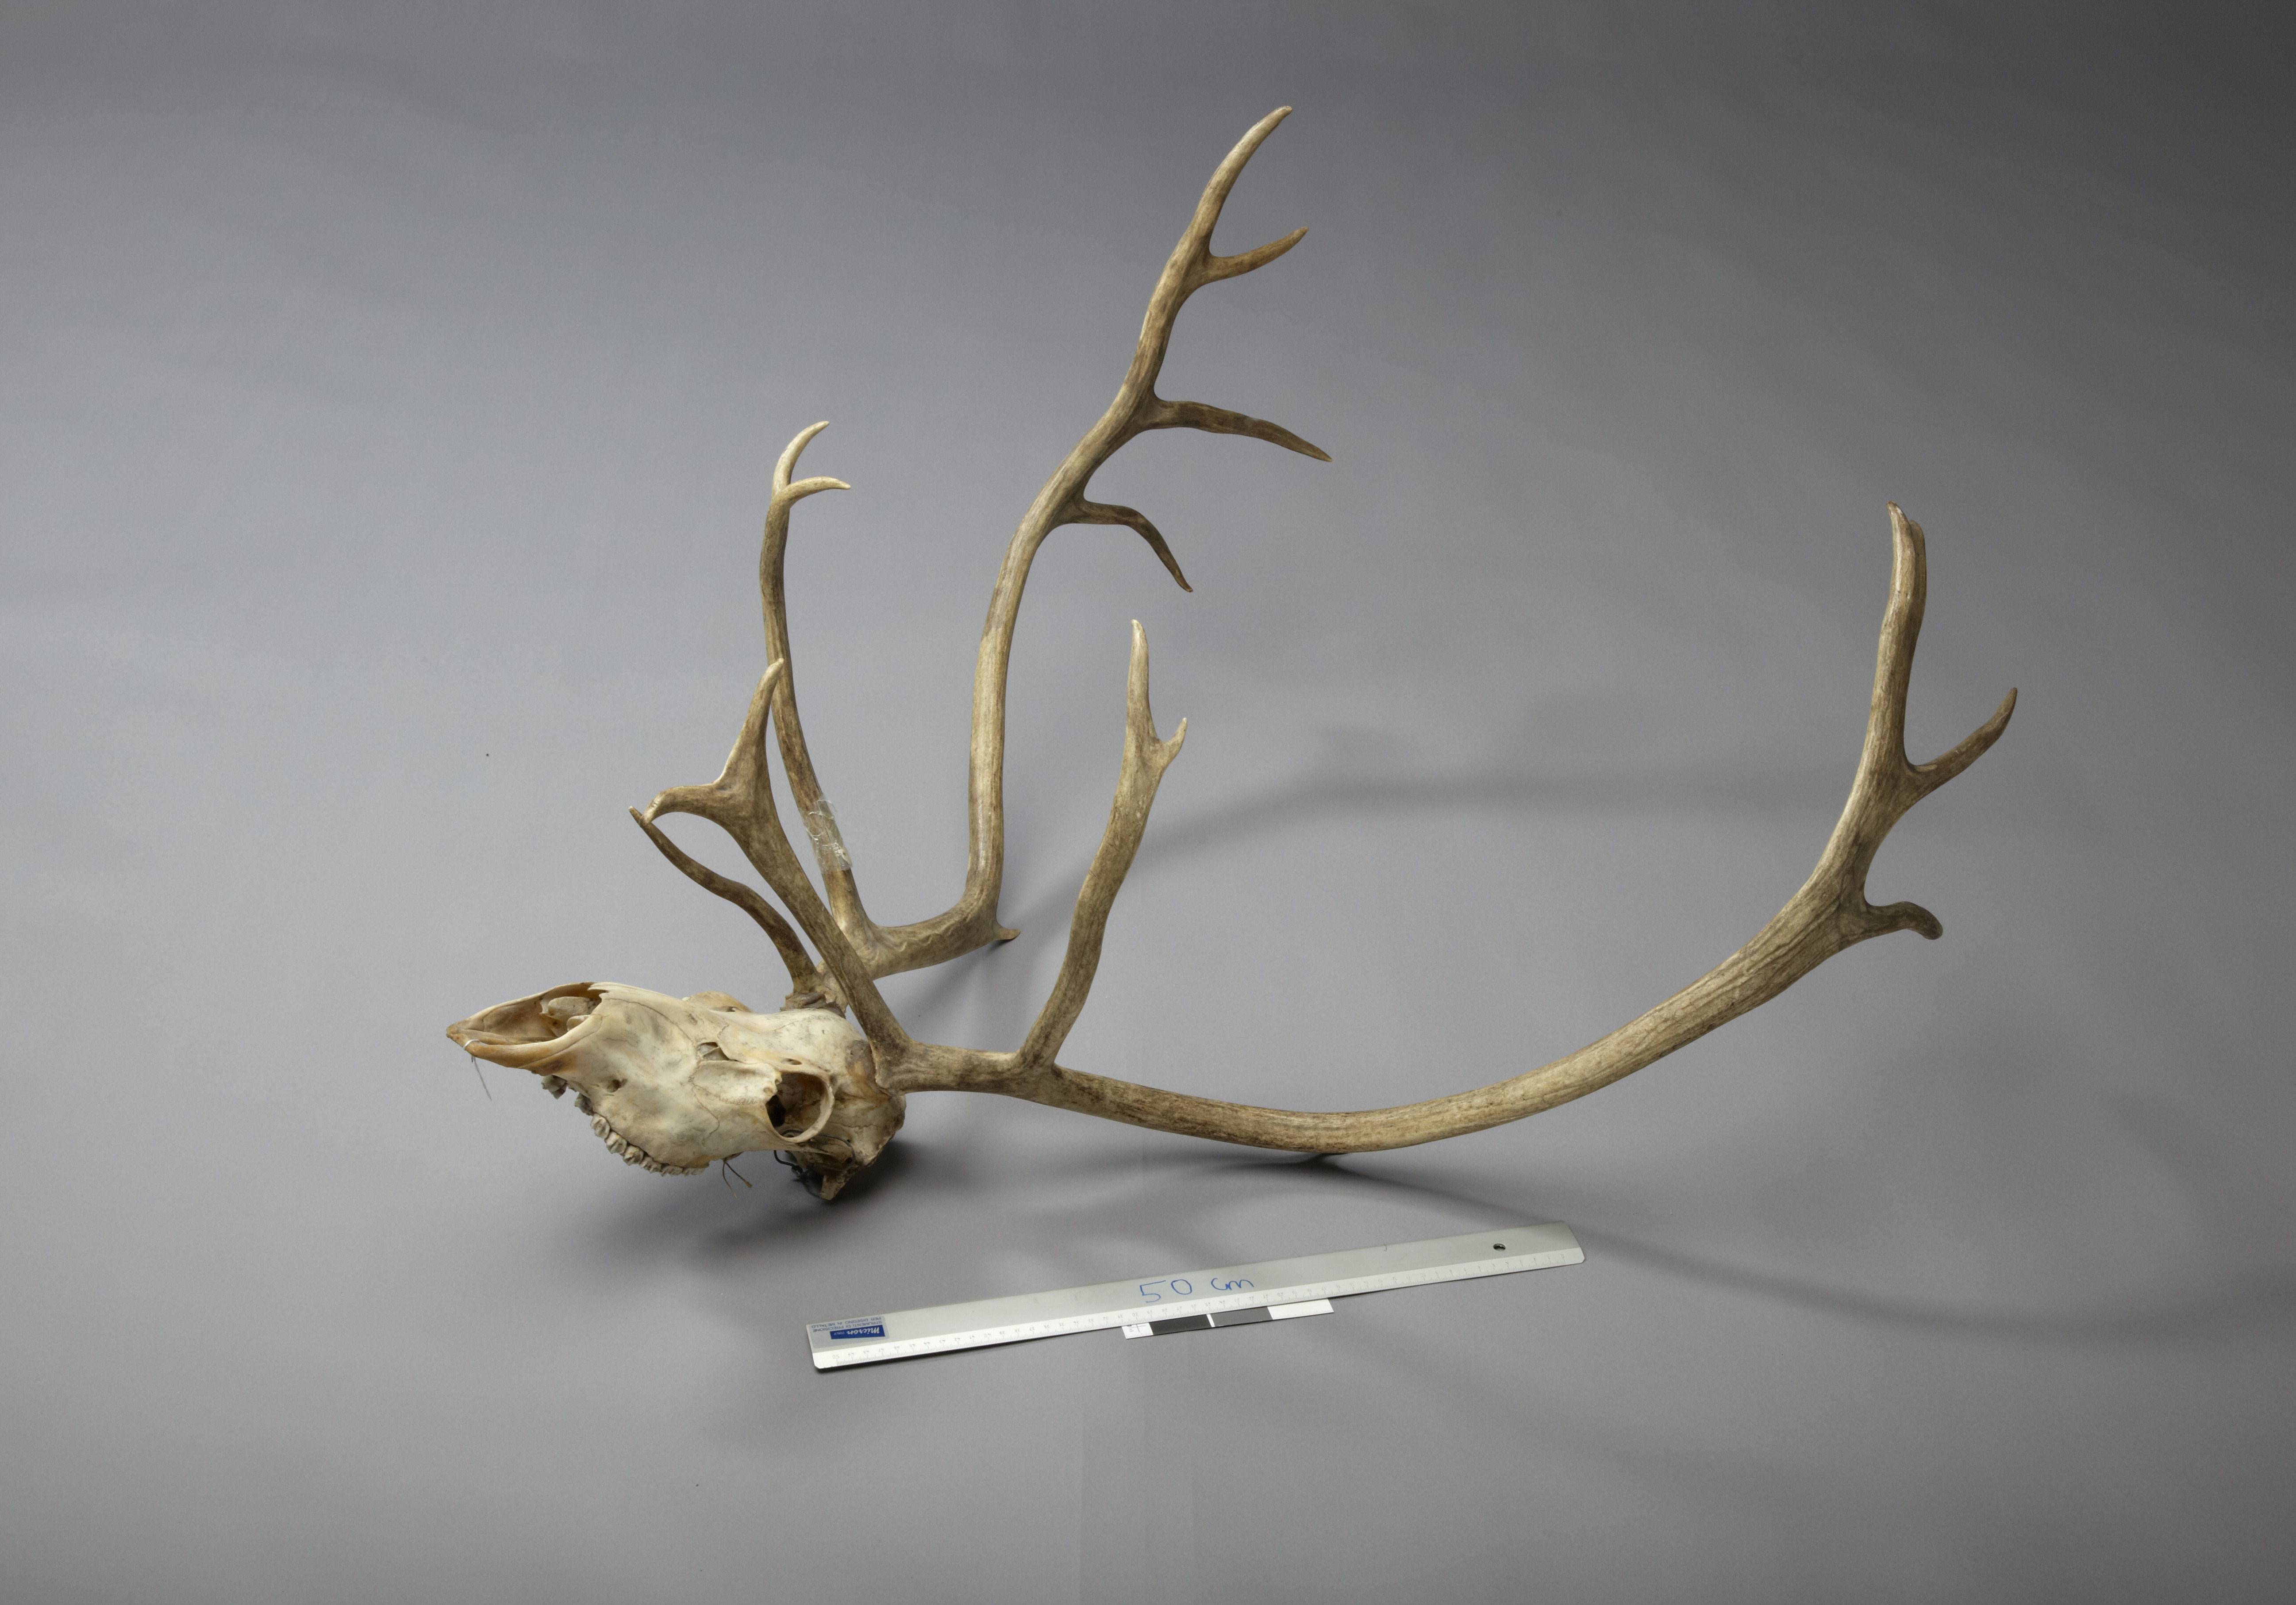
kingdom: Animalia
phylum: Chordata
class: Mammalia
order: Artiodactyla
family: Cervidae
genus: Rangifer
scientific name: Rangifer tarandus
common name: Reindeer
